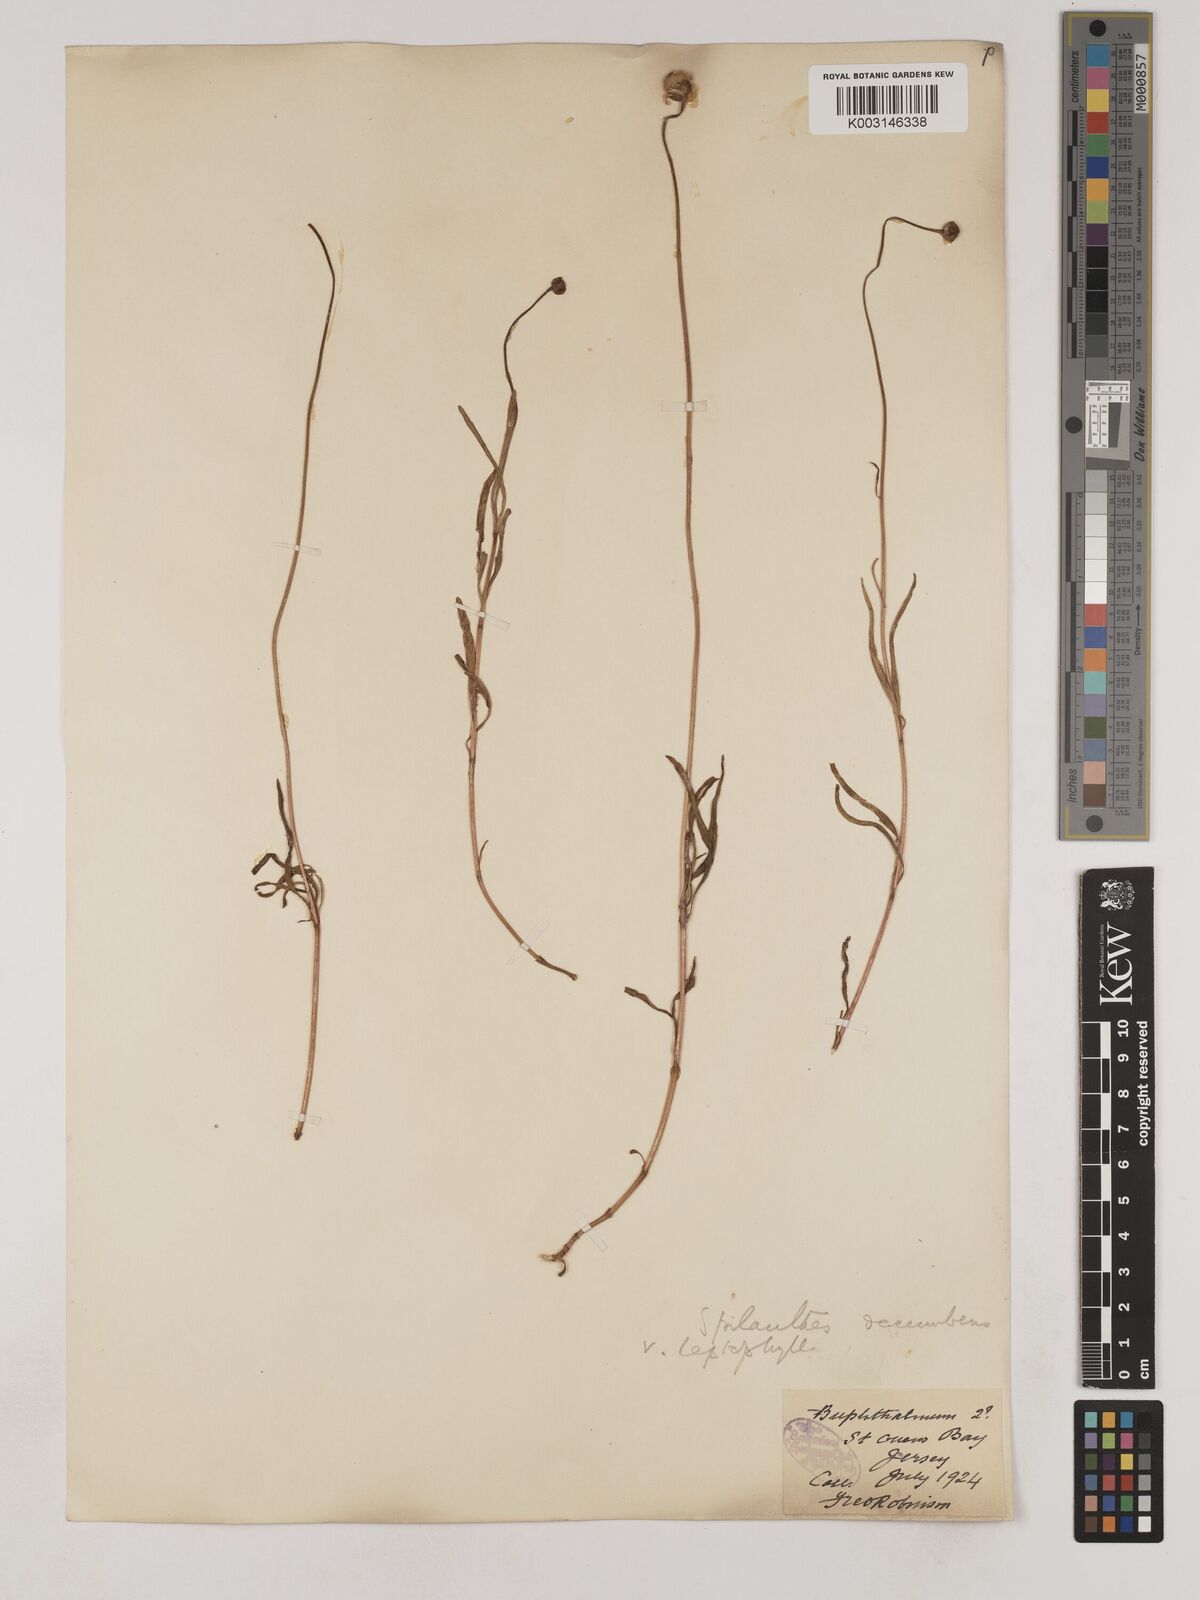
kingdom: Plantae
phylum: Tracheophyta
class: Magnoliopsida
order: Asterales
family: Asteraceae
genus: Acmella
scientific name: Acmella leptophylla
